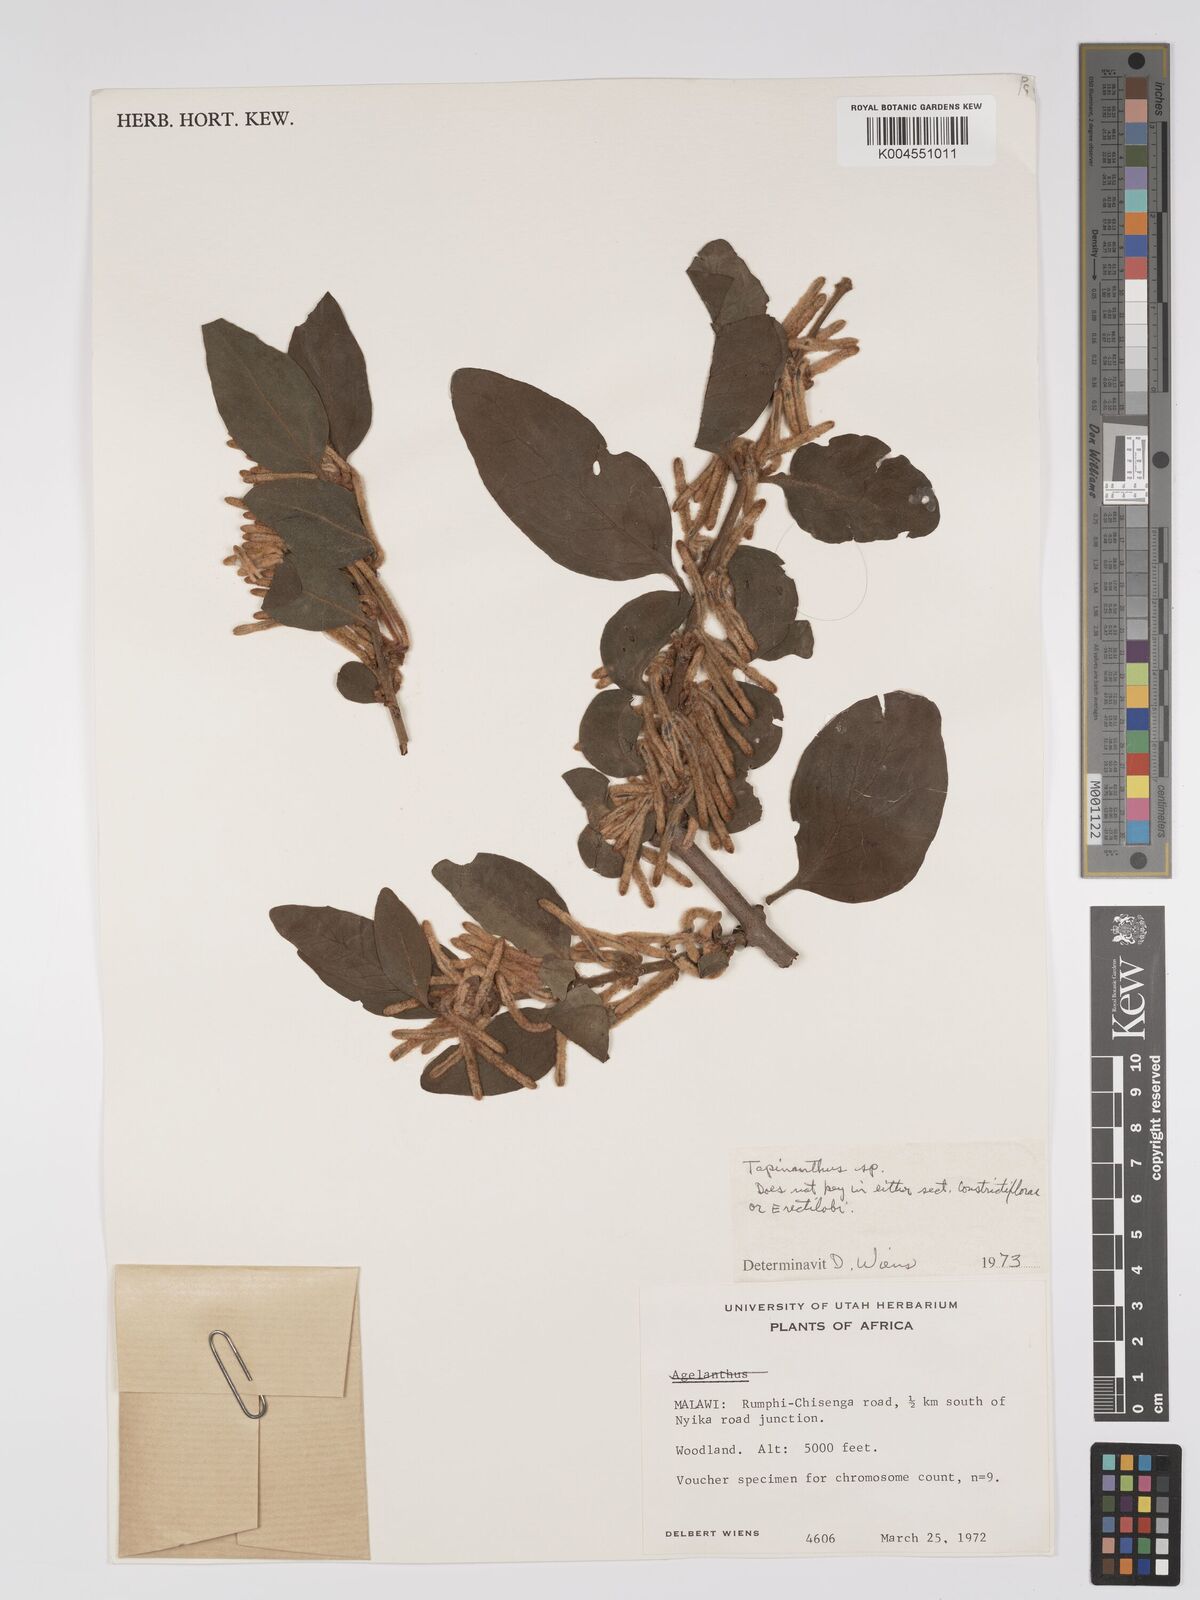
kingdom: Plantae
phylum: Tracheophyta
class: Magnoliopsida
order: Santalales
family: Loranthaceae
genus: Agelanthus
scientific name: Agelanthus molleri
